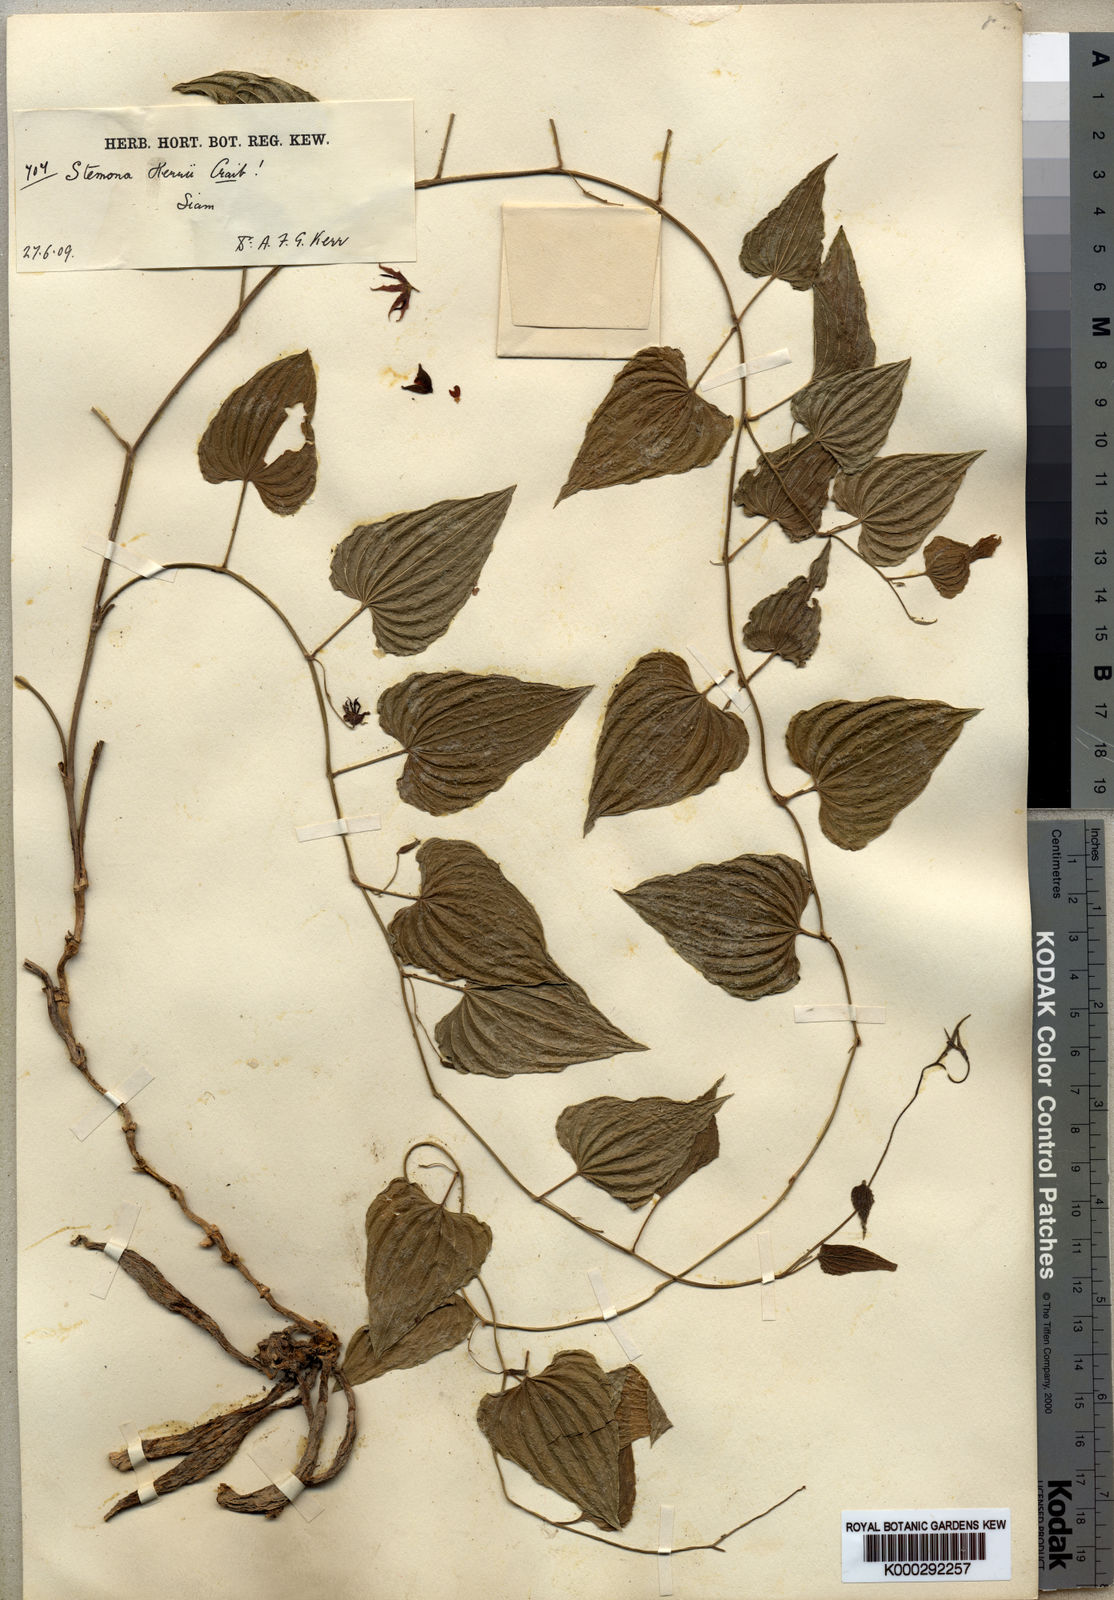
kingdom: Plantae
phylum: Tracheophyta
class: Liliopsida
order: Pandanales
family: Stemonaceae
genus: Stemona
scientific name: Stemona kerrii
